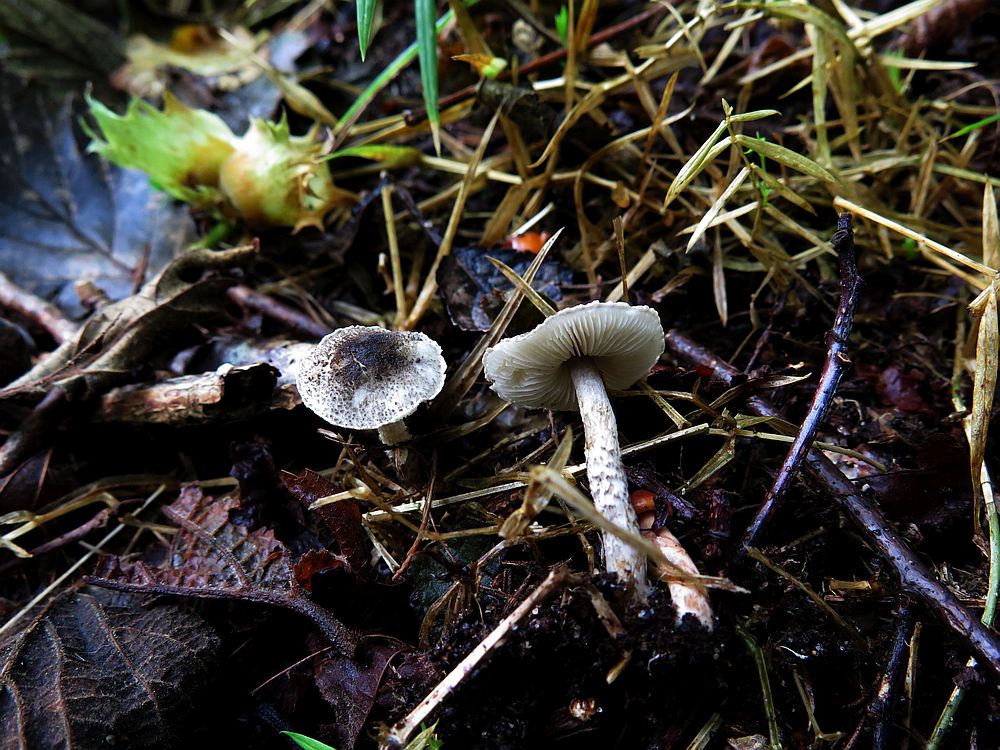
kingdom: Fungi
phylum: Basidiomycota
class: Agaricomycetes
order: Agaricales
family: Agaricaceae
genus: Lepiota
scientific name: Lepiota griseovirens
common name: grågrøn parasolhat
